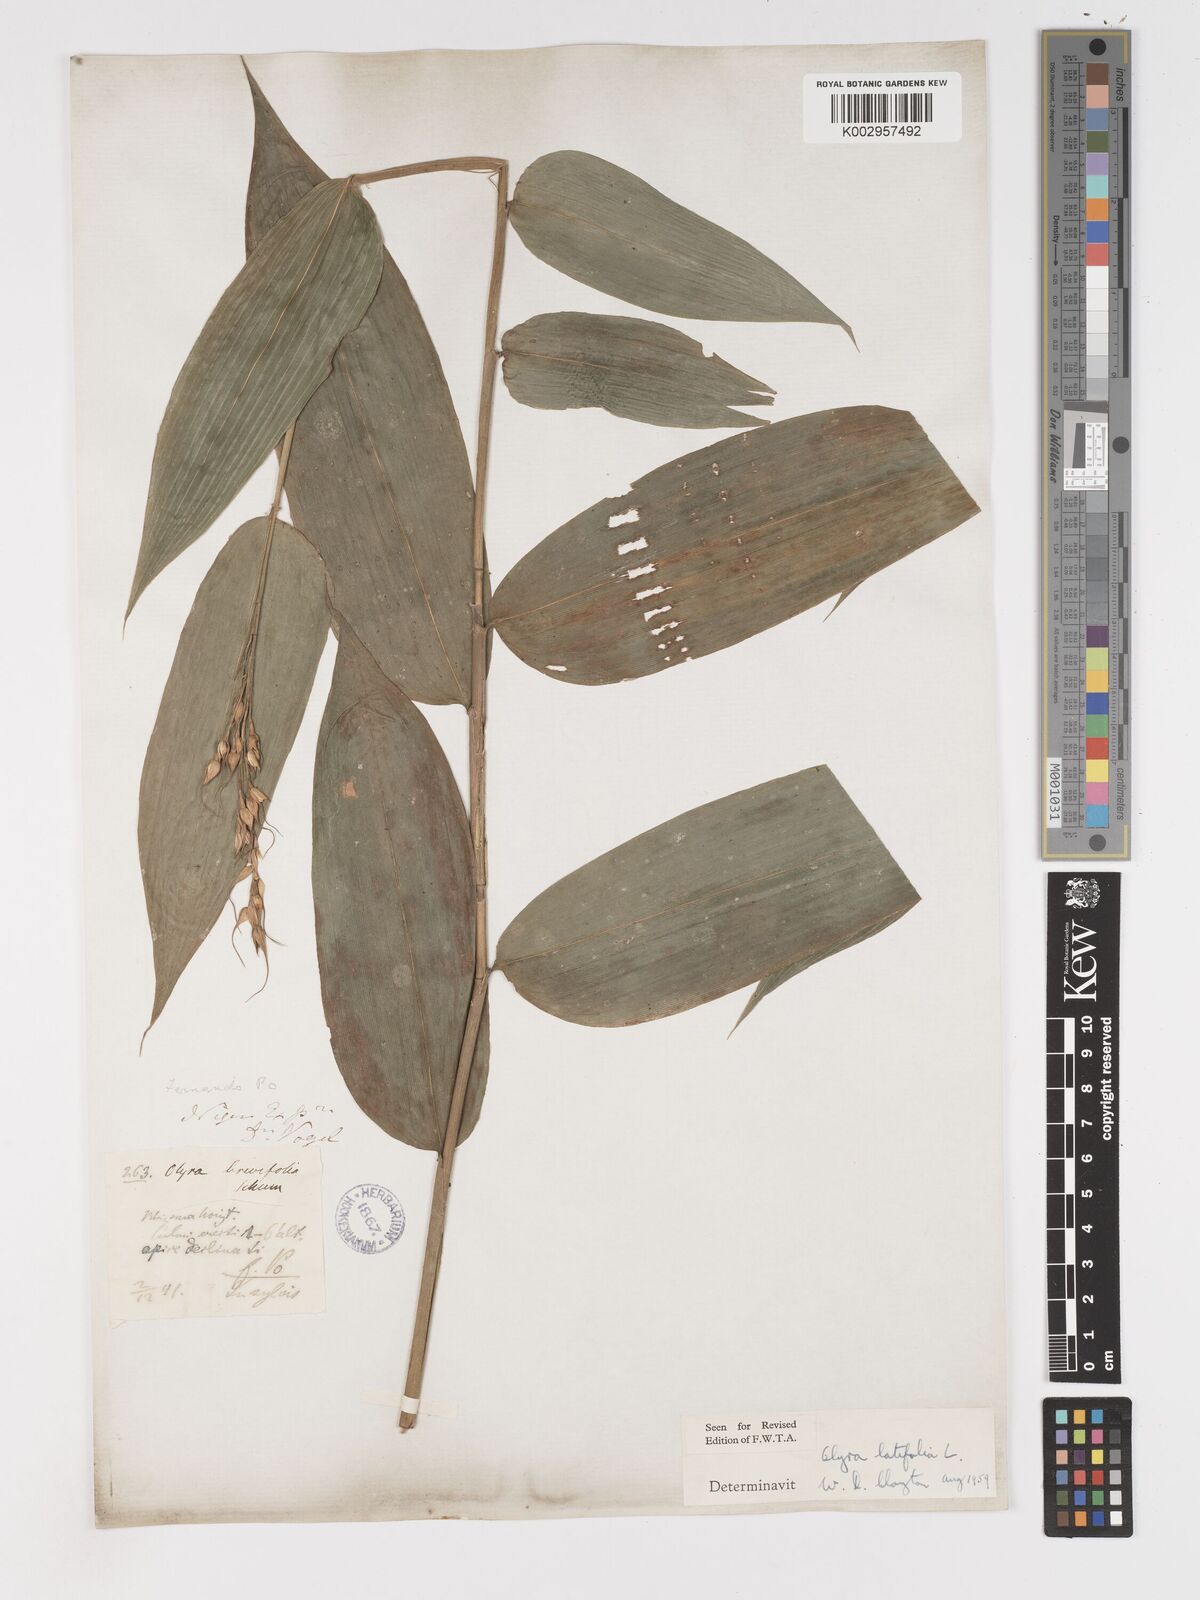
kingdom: Plantae
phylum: Tracheophyta
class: Liliopsida
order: Poales
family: Poaceae
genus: Olyra
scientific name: Olyra latifolia
